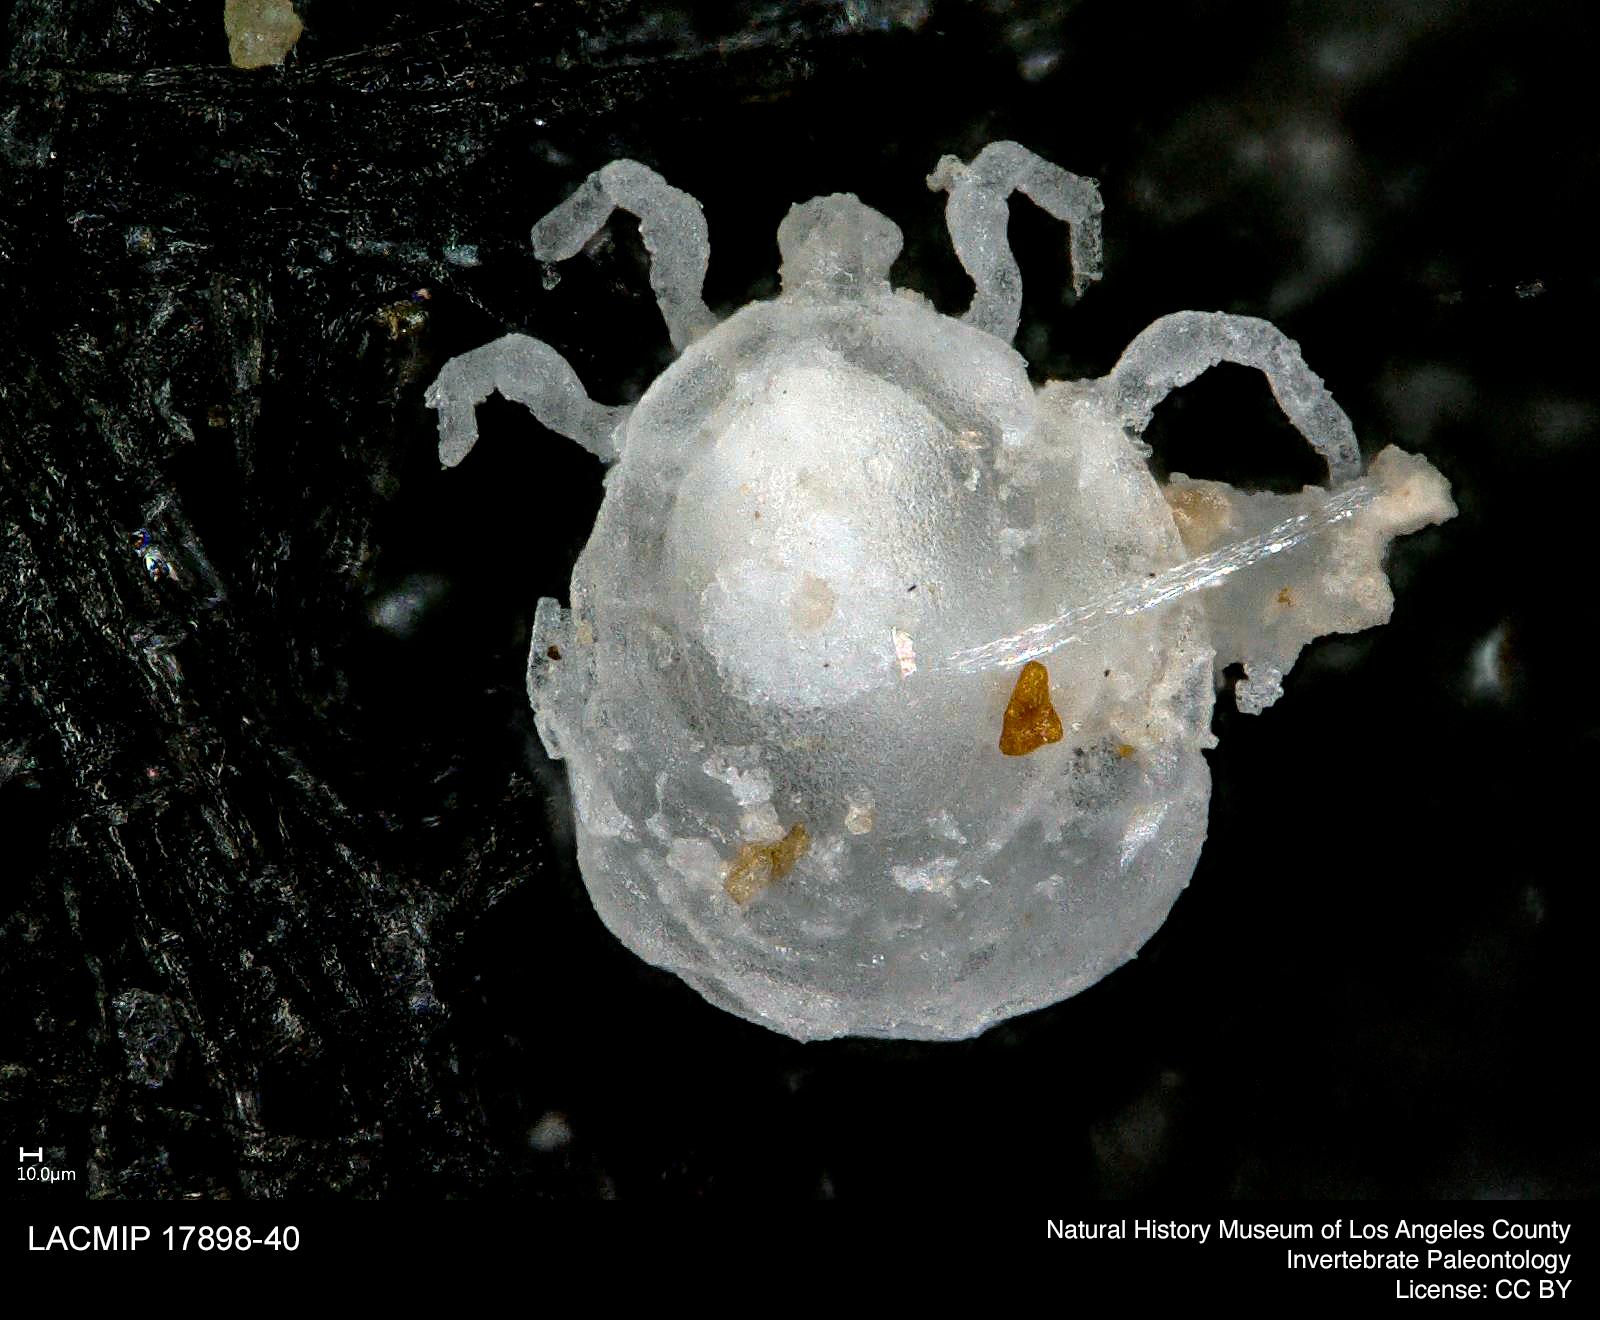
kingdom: Animalia
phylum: Arthropoda
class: Arachnida
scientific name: Arachnida
